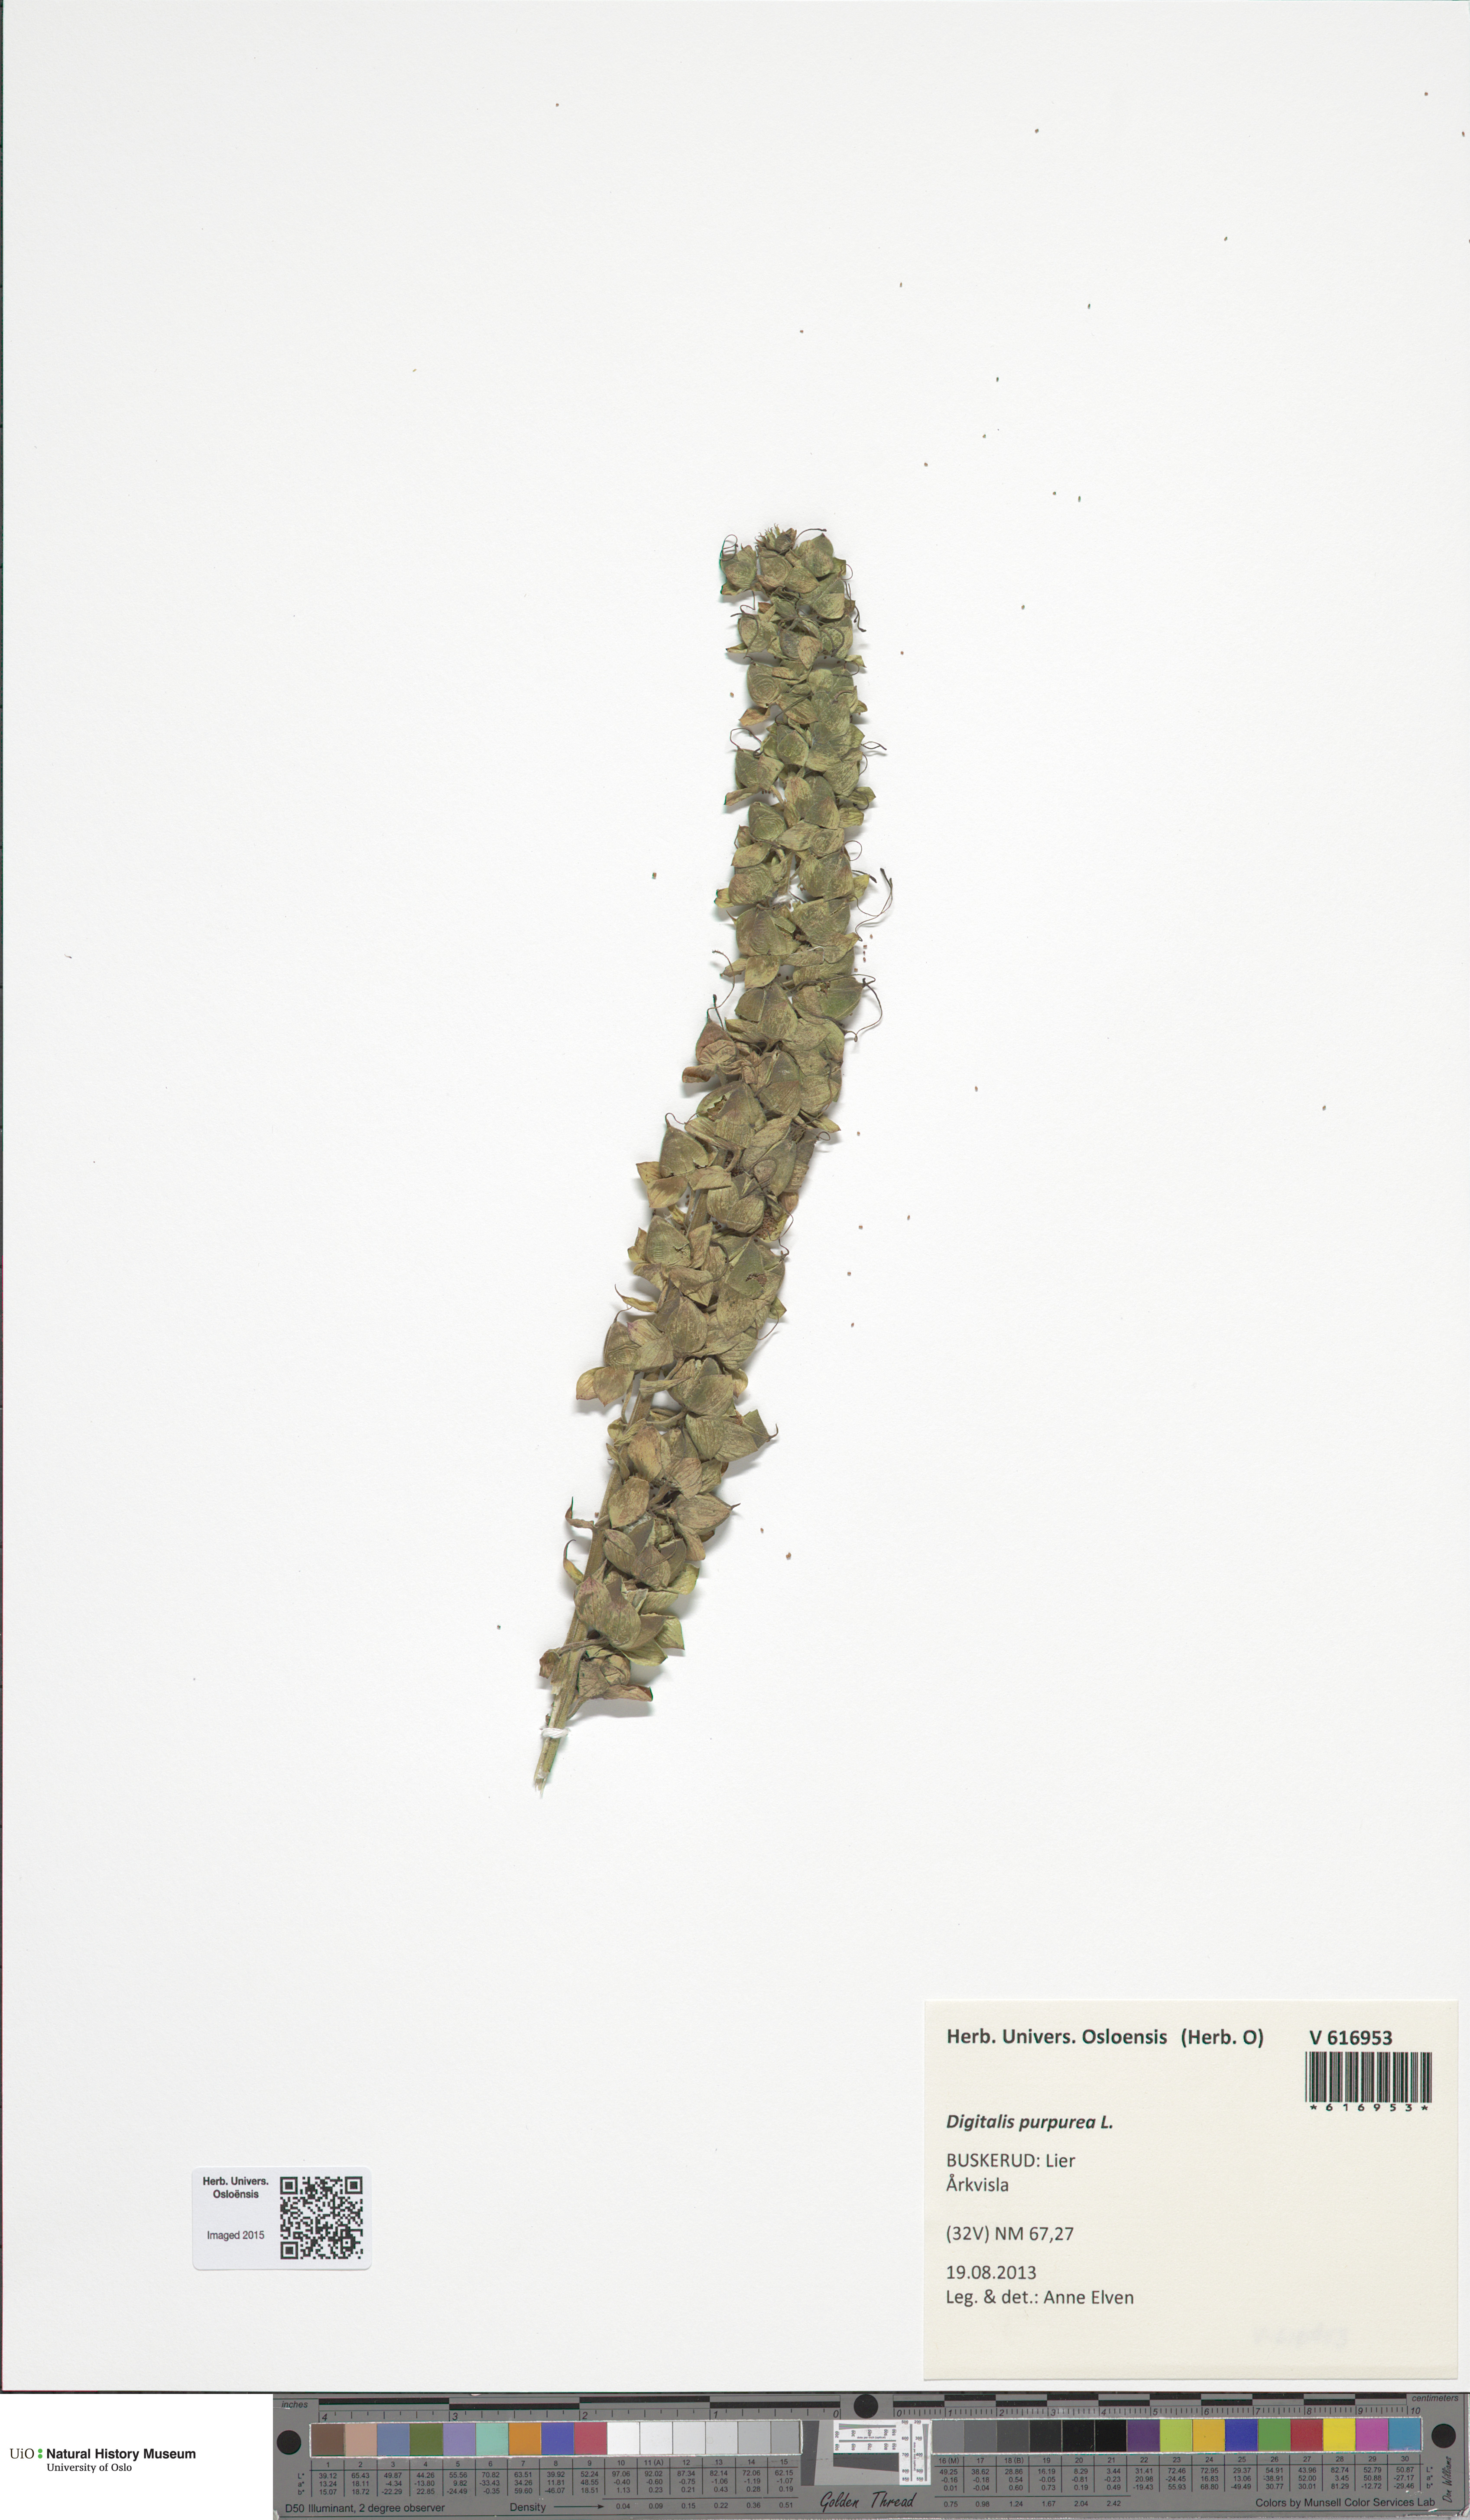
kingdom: Plantae
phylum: Tracheophyta
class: Magnoliopsida
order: Lamiales
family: Plantaginaceae
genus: Digitalis
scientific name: Digitalis purpurea
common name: Foxglove
